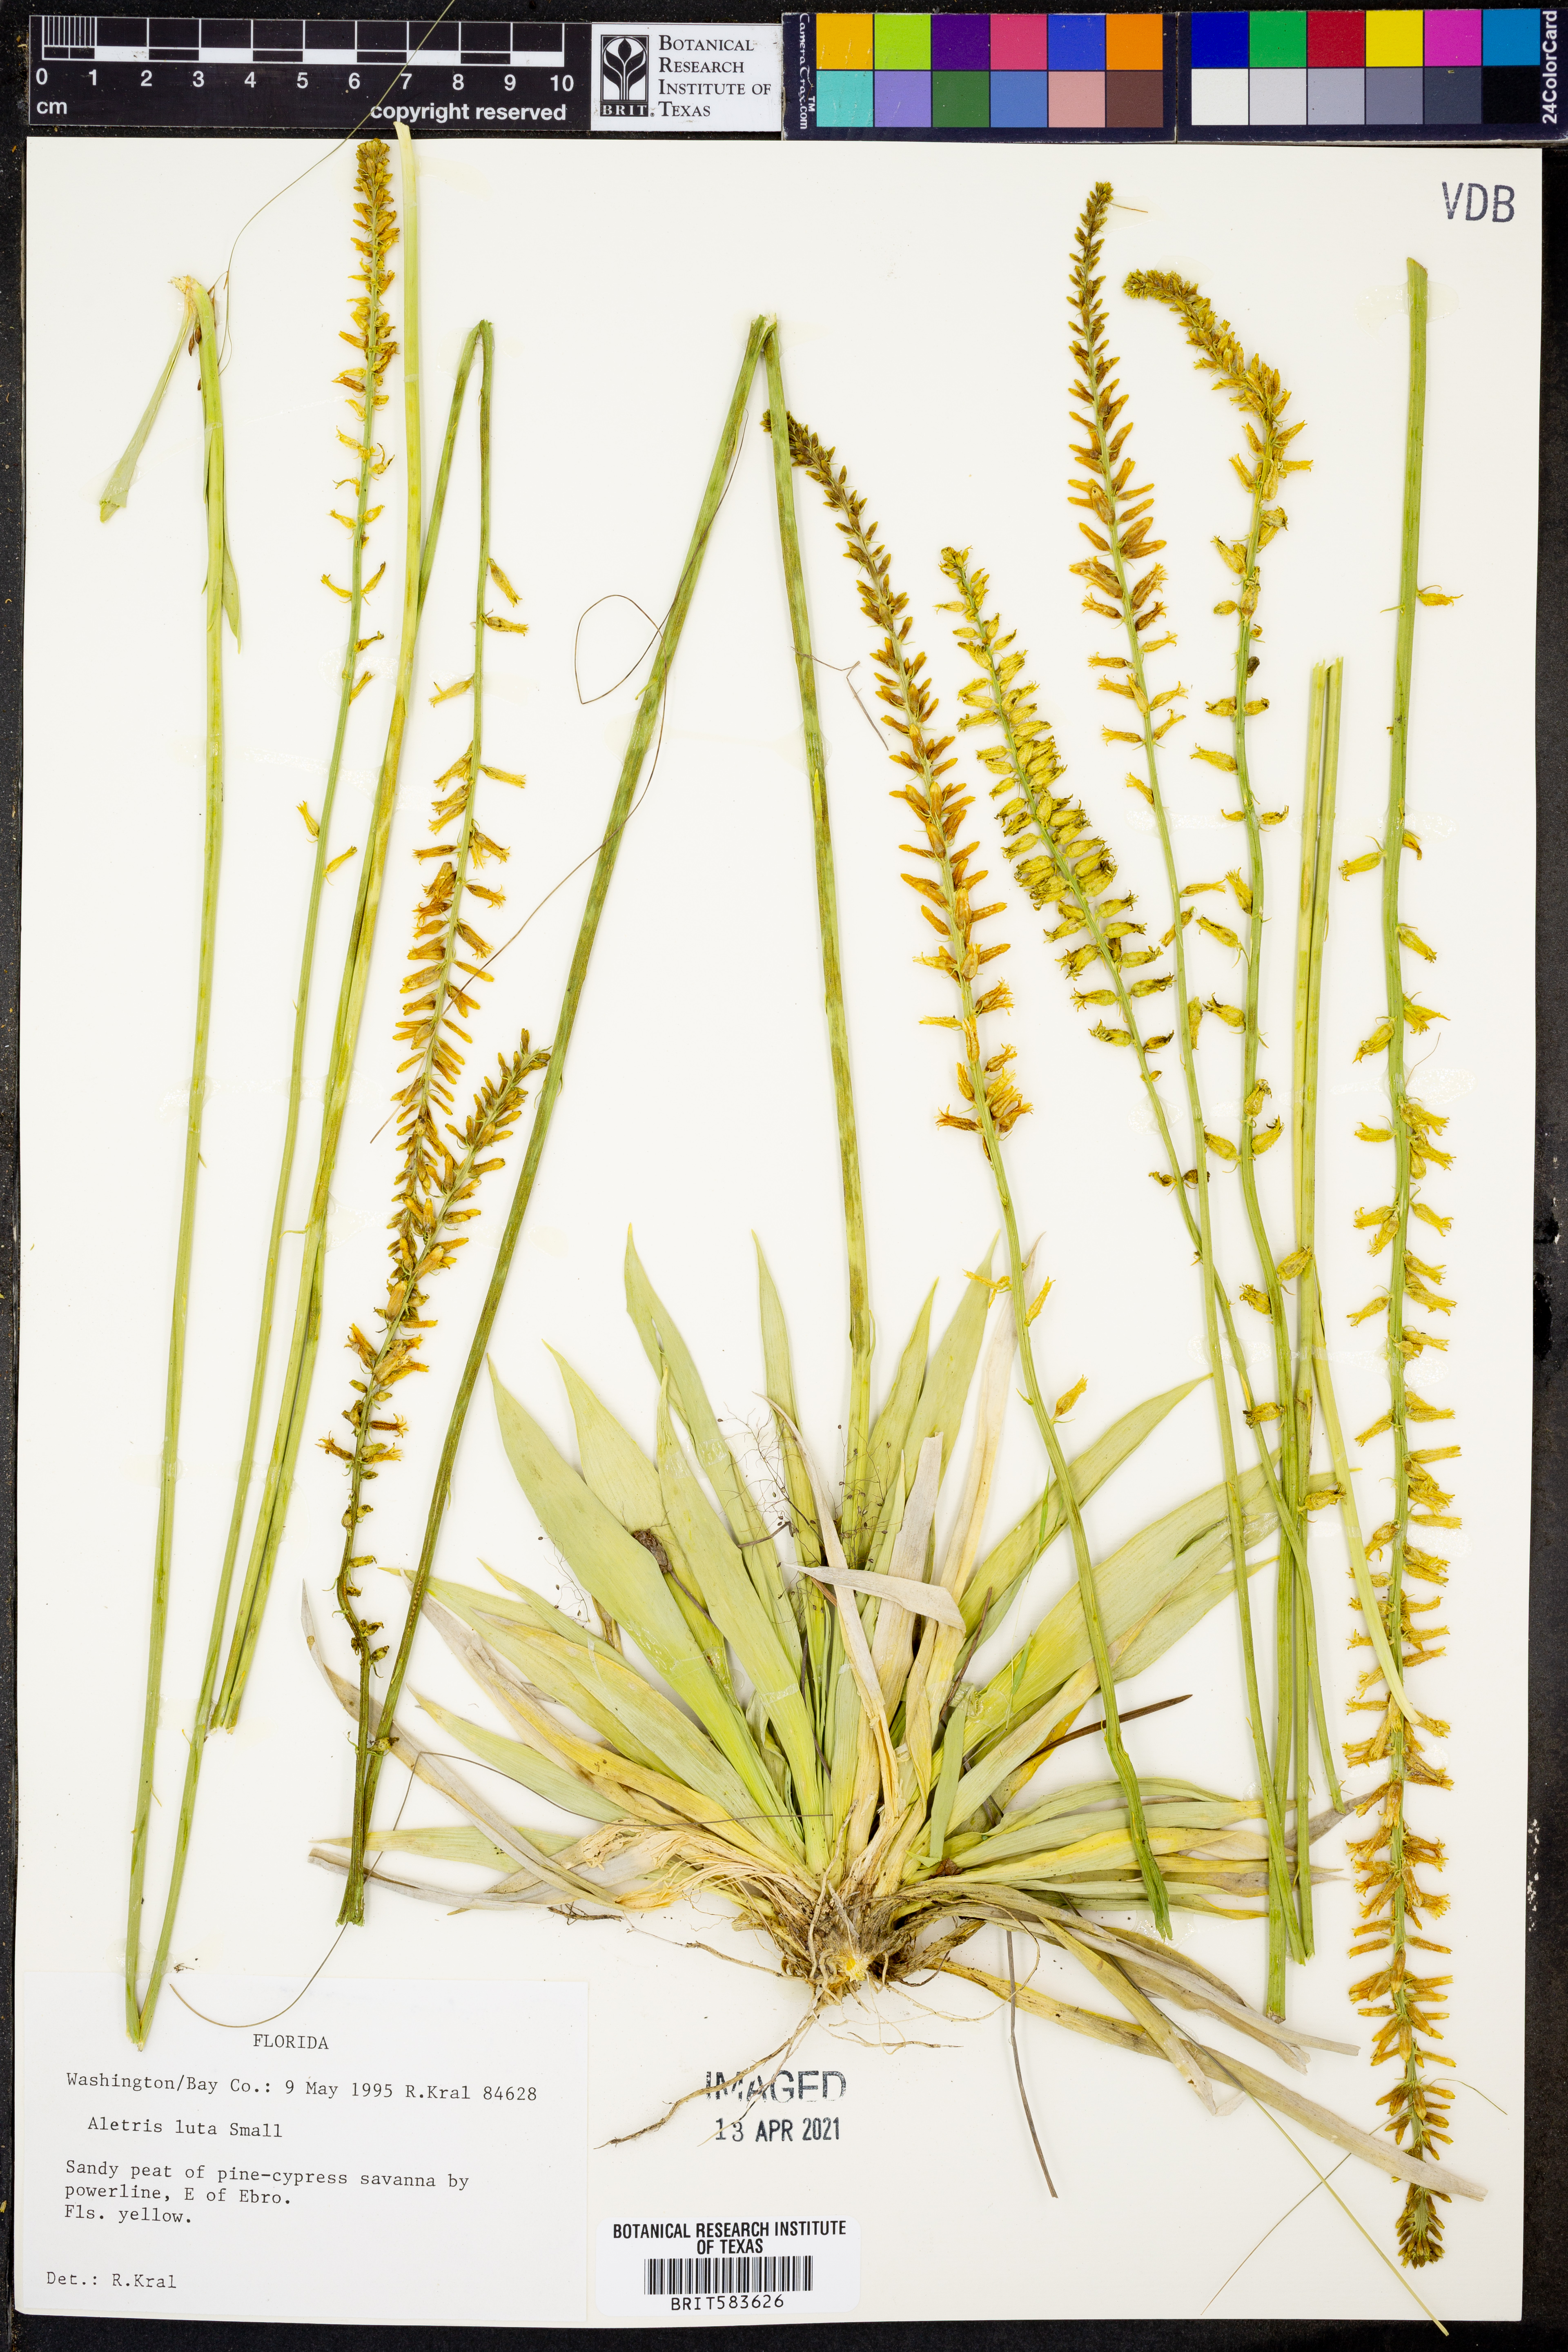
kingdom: Plantae
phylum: Tracheophyta
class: Liliopsida
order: Dioscoreales
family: Nartheciaceae
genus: Aletris
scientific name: Aletris lutea
